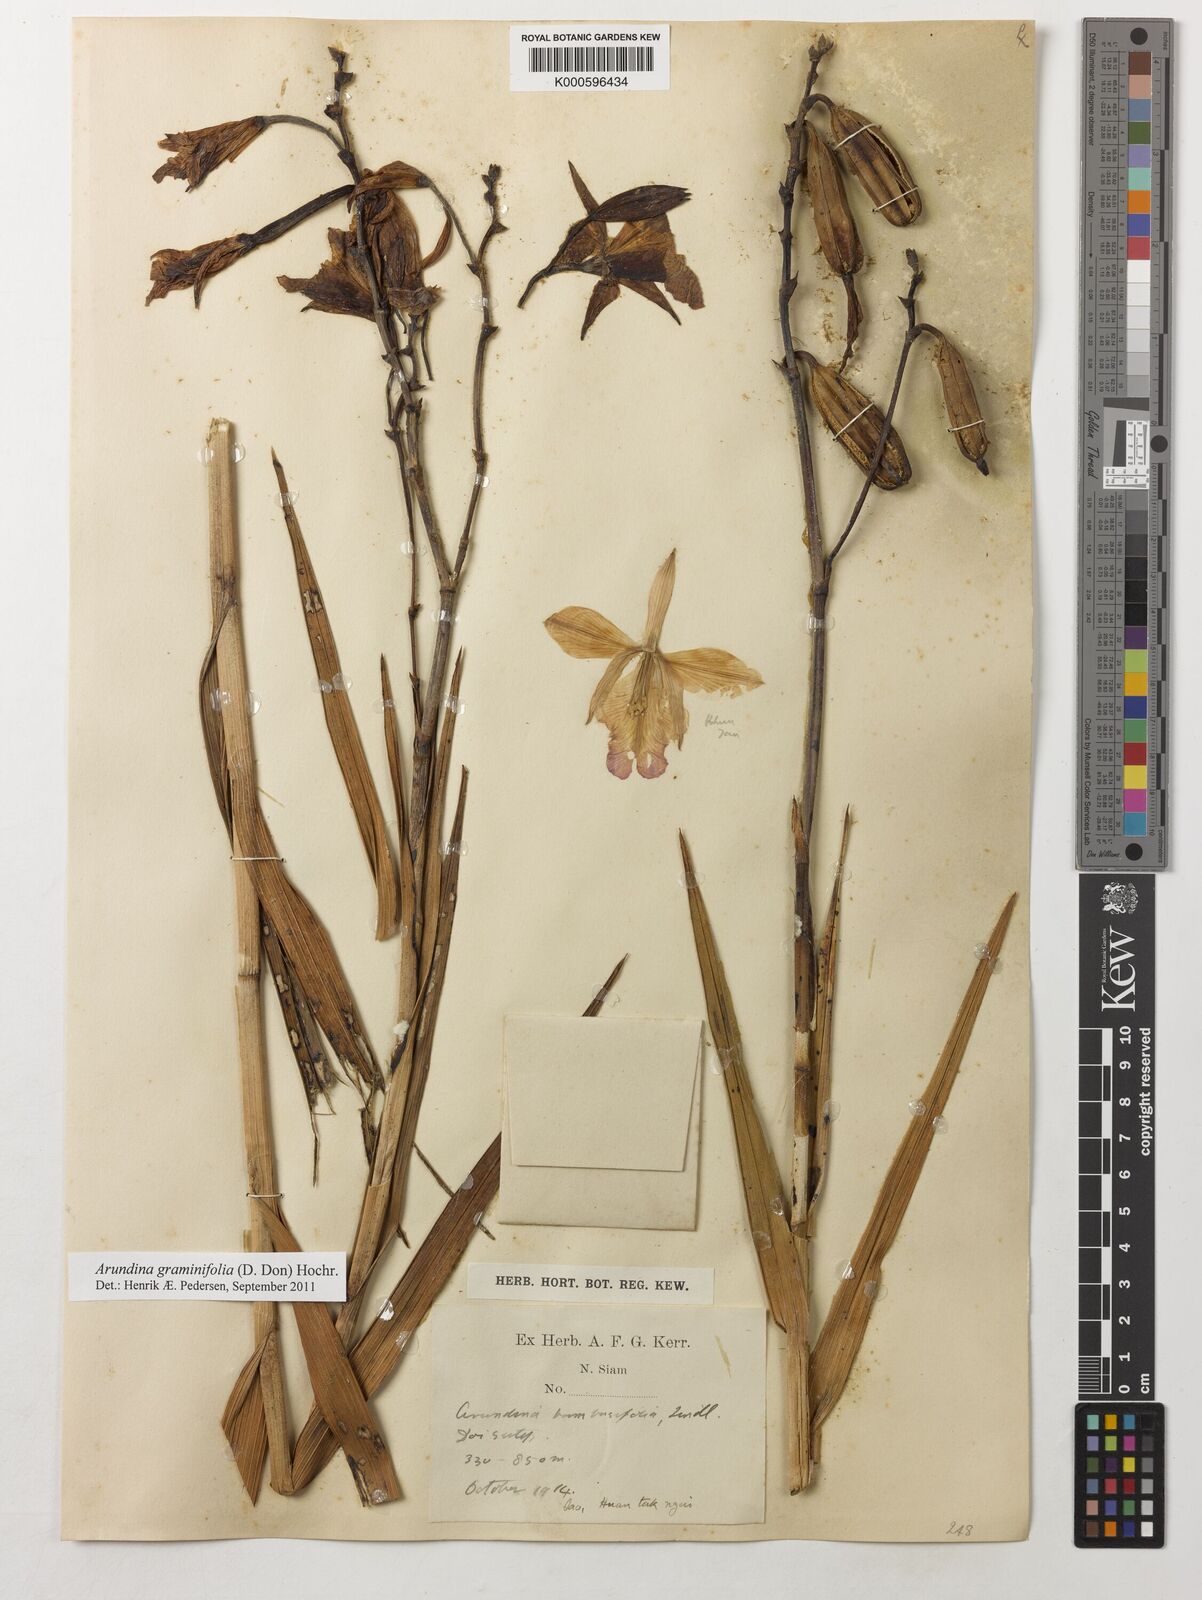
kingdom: Plantae
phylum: Tracheophyta
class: Liliopsida
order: Asparagales
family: Orchidaceae
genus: Arundina
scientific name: Arundina graminifolia
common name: Bamboo orchid
